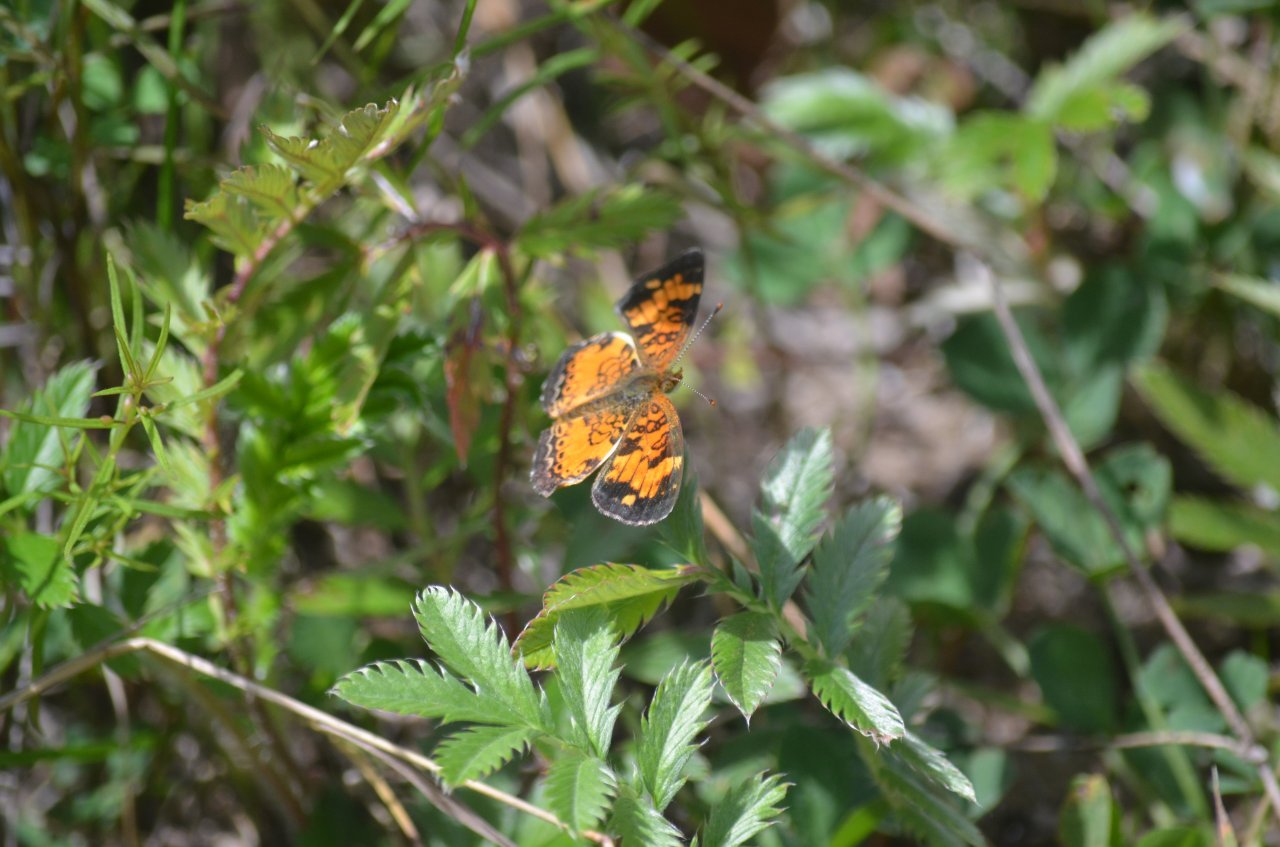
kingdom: Animalia
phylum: Arthropoda
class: Insecta
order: Lepidoptera
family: Nymphalidae
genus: Phyciodes
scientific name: Phyciodes tharos
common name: Northern Crescent
